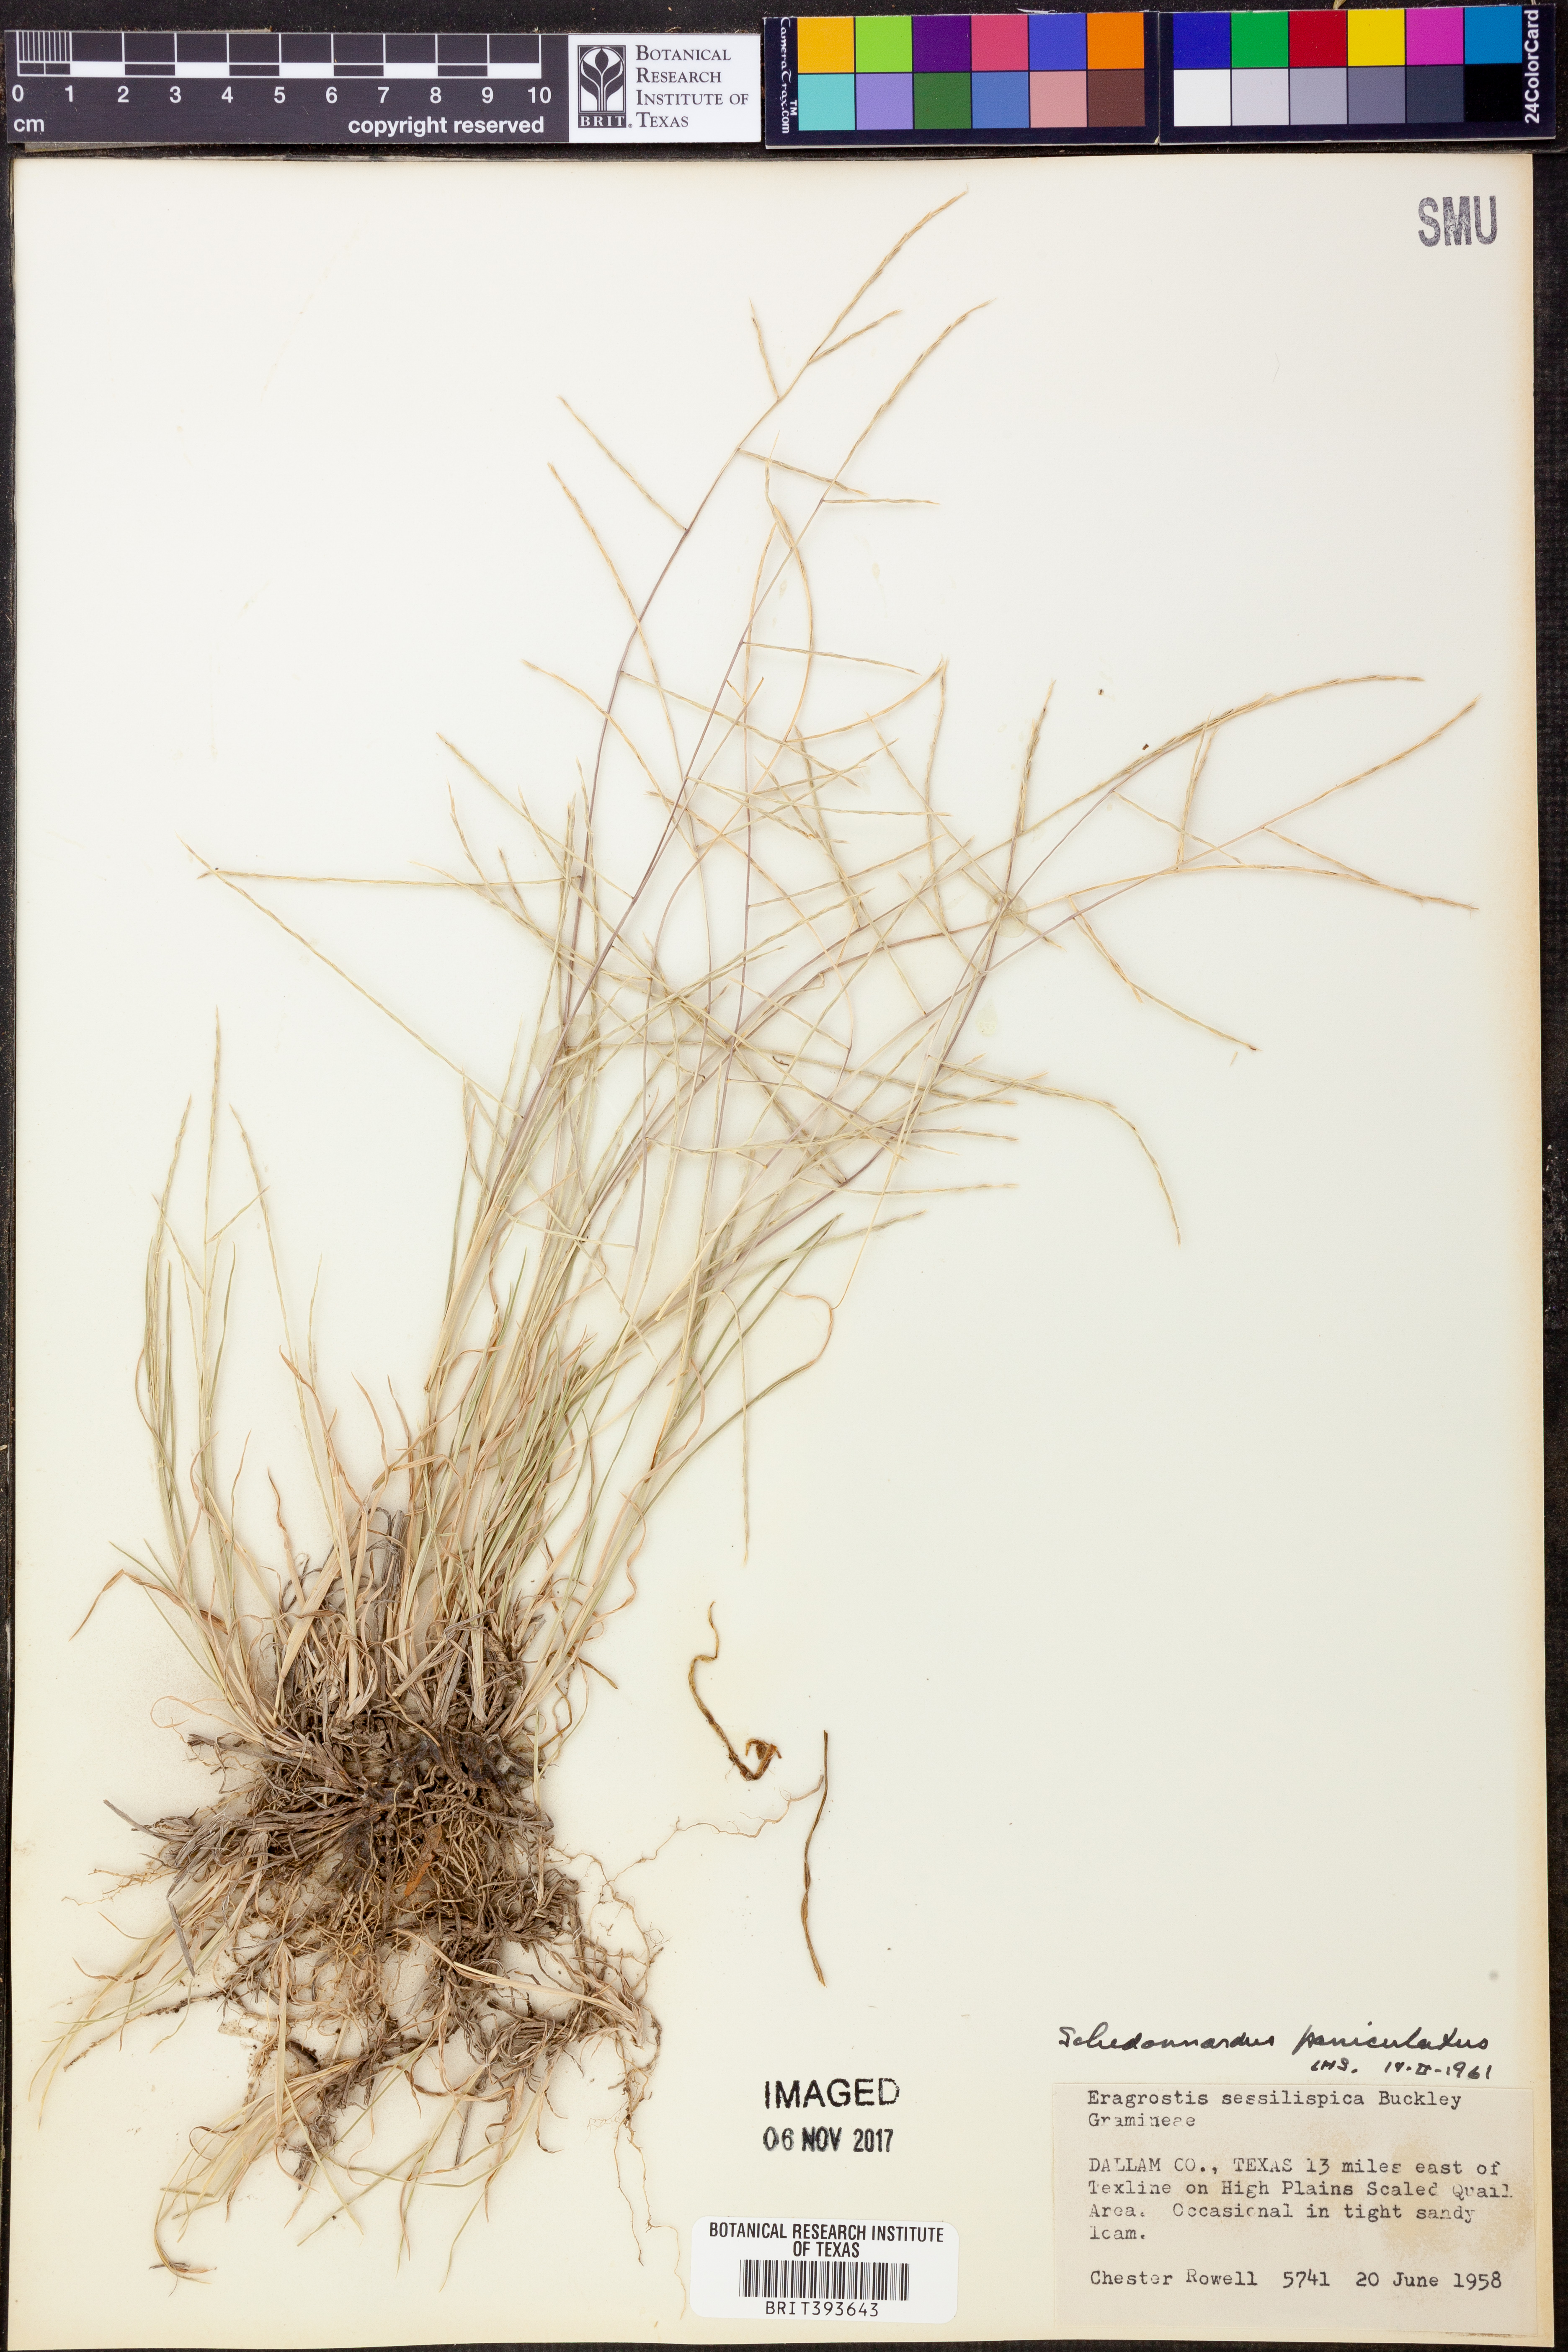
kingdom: Plantae
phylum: Tracheophyta
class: Liliopsida
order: Poales
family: Poaceae
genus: Muhlenbergia
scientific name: Muhlenbergia paniculata
